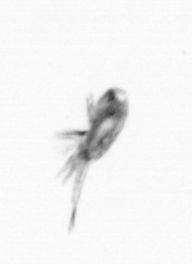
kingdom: Animalia
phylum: Arthropoda
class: Copepoda
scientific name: Copepoda
